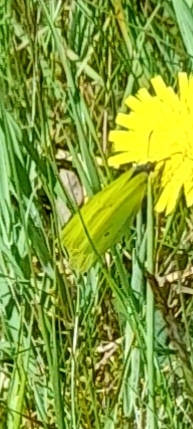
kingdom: Animalia
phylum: Arthropoda
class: Insecta
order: Lepidoptera
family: Pieridae
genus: Gonepteryx
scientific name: Gonepteryx rhamni
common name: Citronsommerfugl
